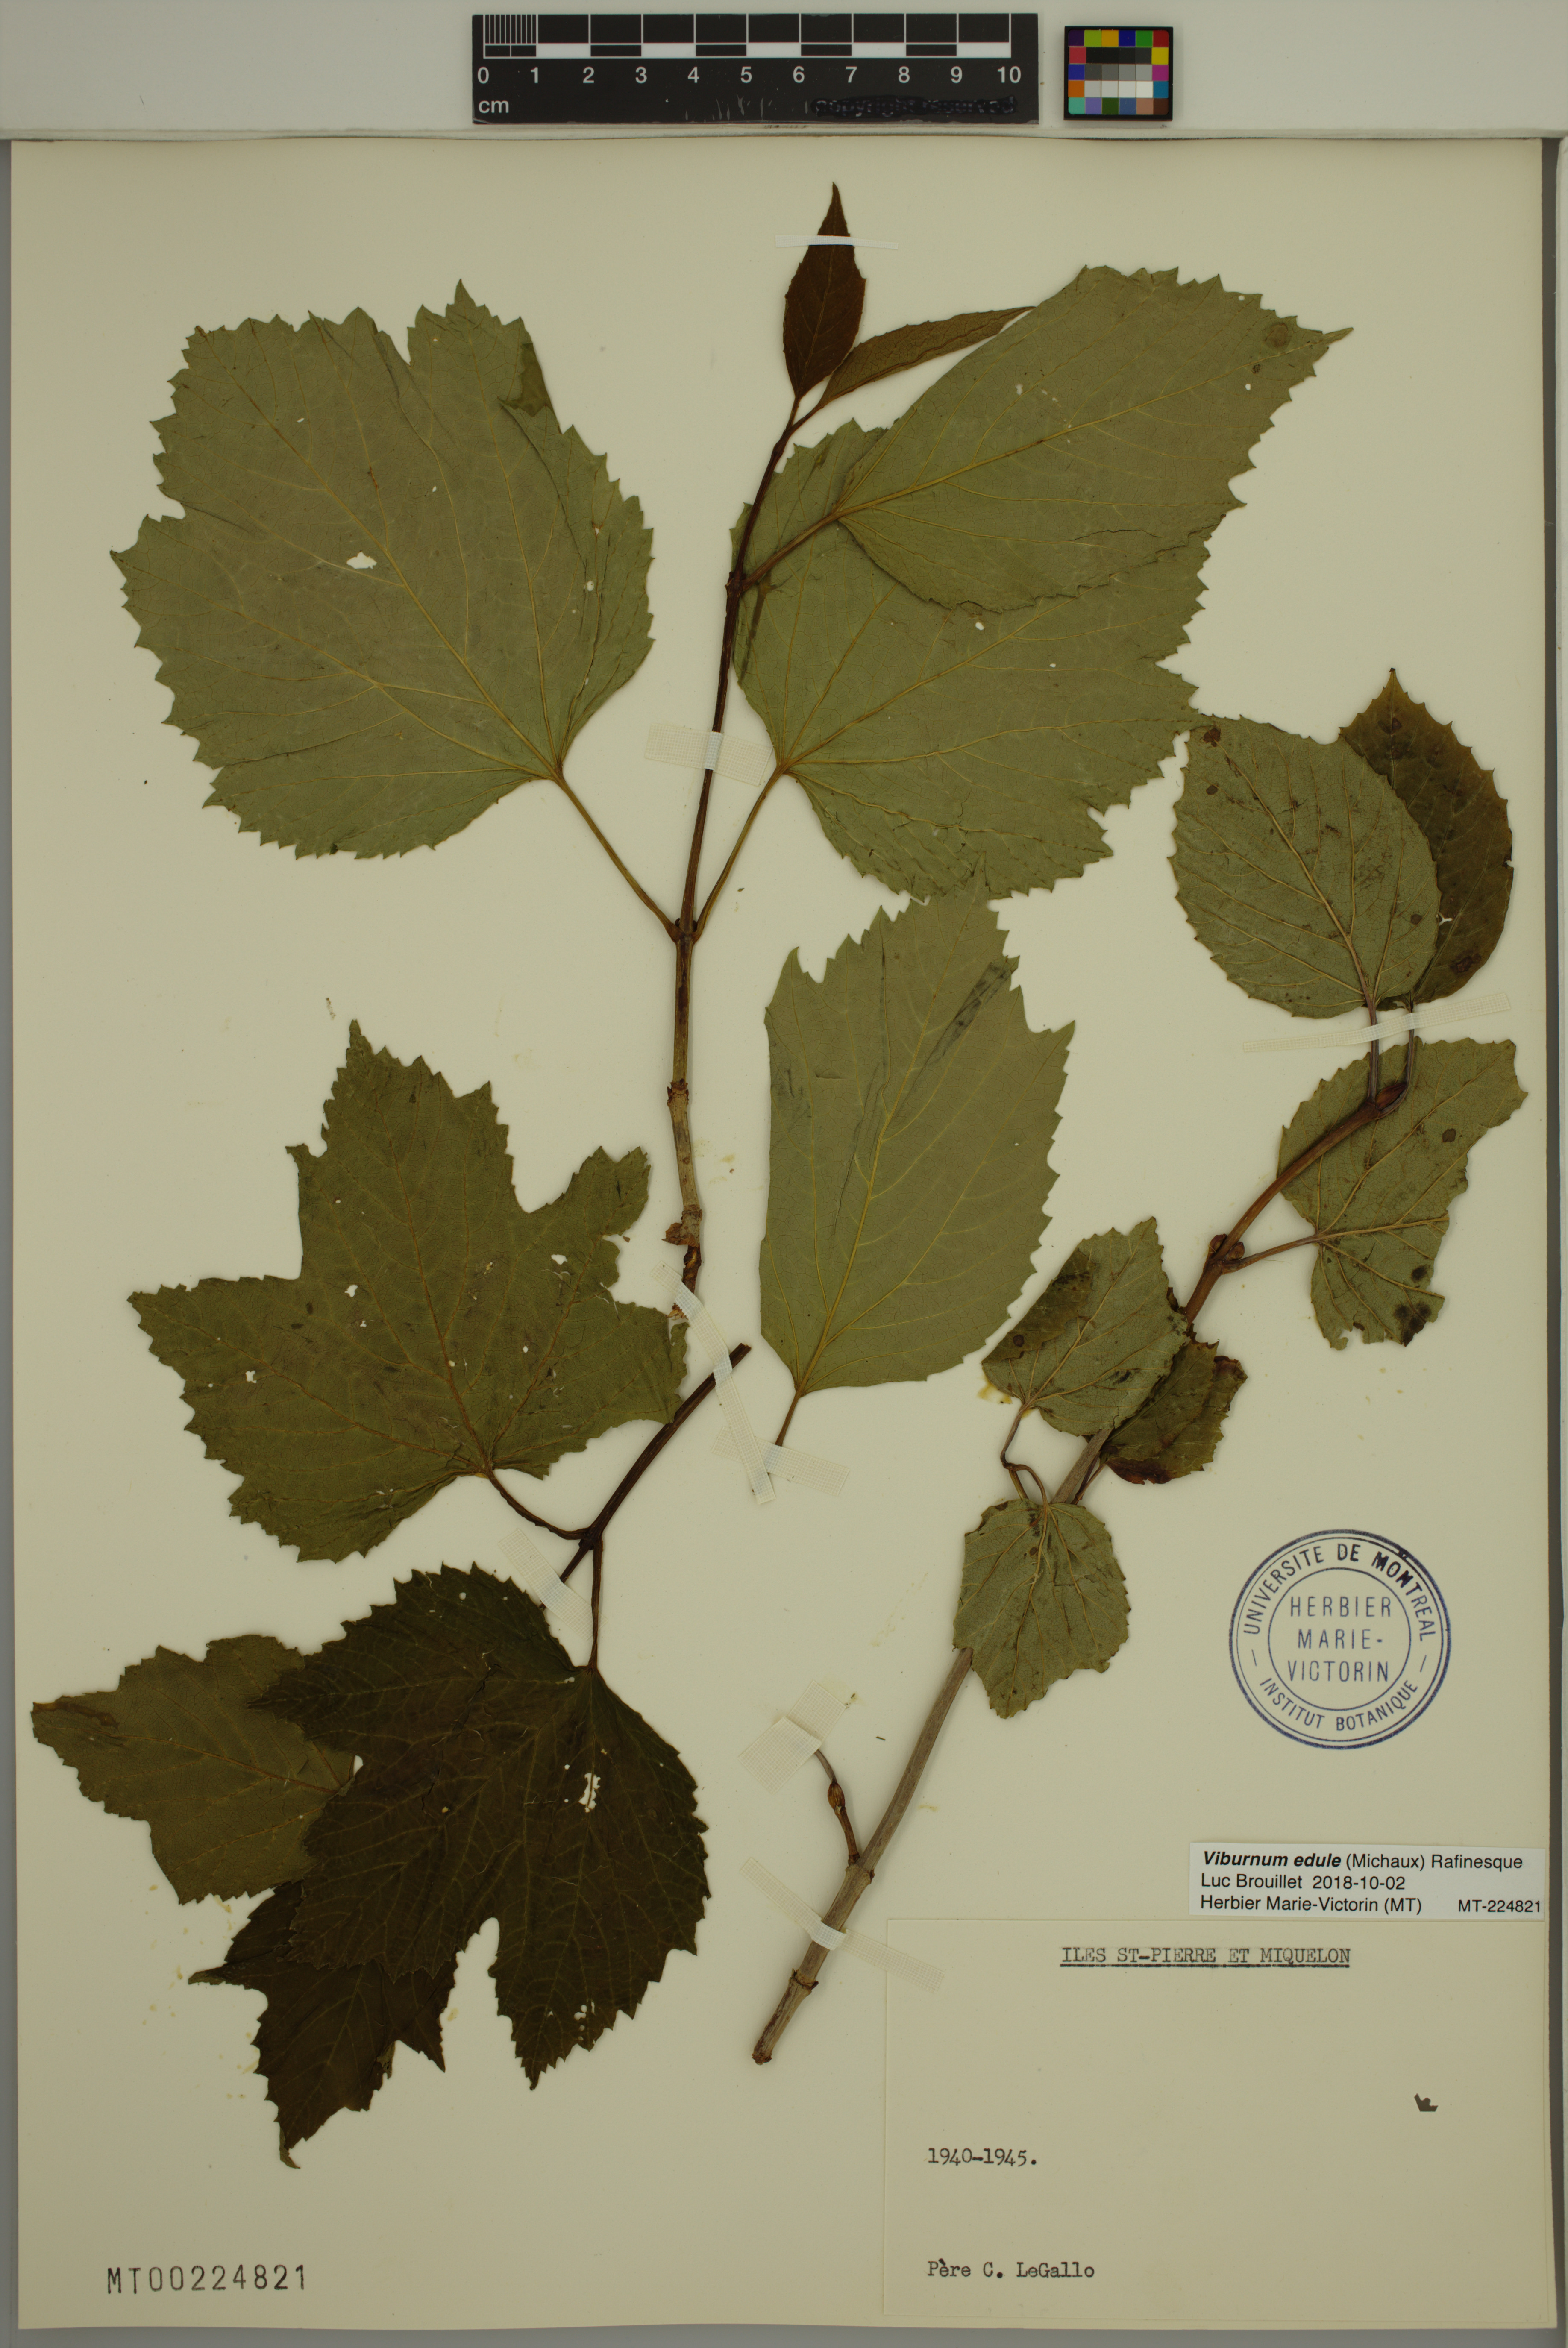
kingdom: Plantae
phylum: Tracheophyta
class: Magnoliopsida
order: Dipsacales
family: Viburnaceae
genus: Viburnum
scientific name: Viburnum edule
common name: Mooseberry
